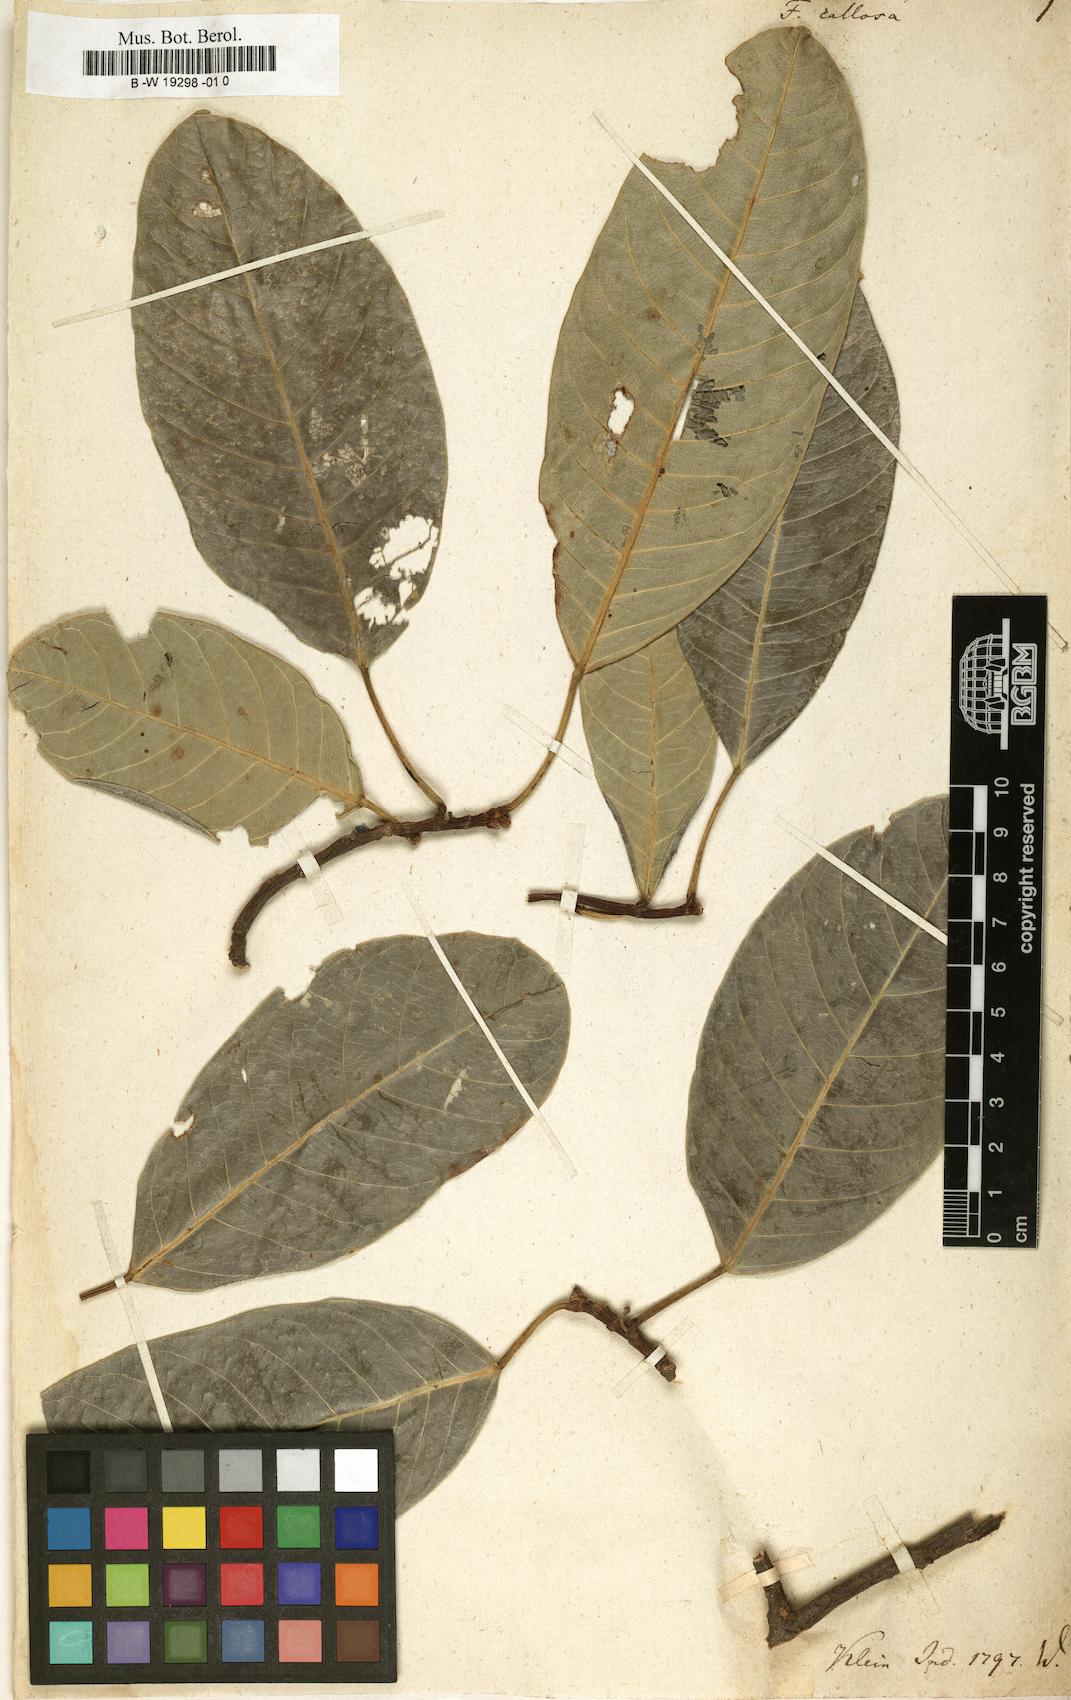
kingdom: Plantae
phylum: Tracheophyta
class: Magnoliopsida
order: Rosales
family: Moraceae
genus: Ficus
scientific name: Ficus callosa
